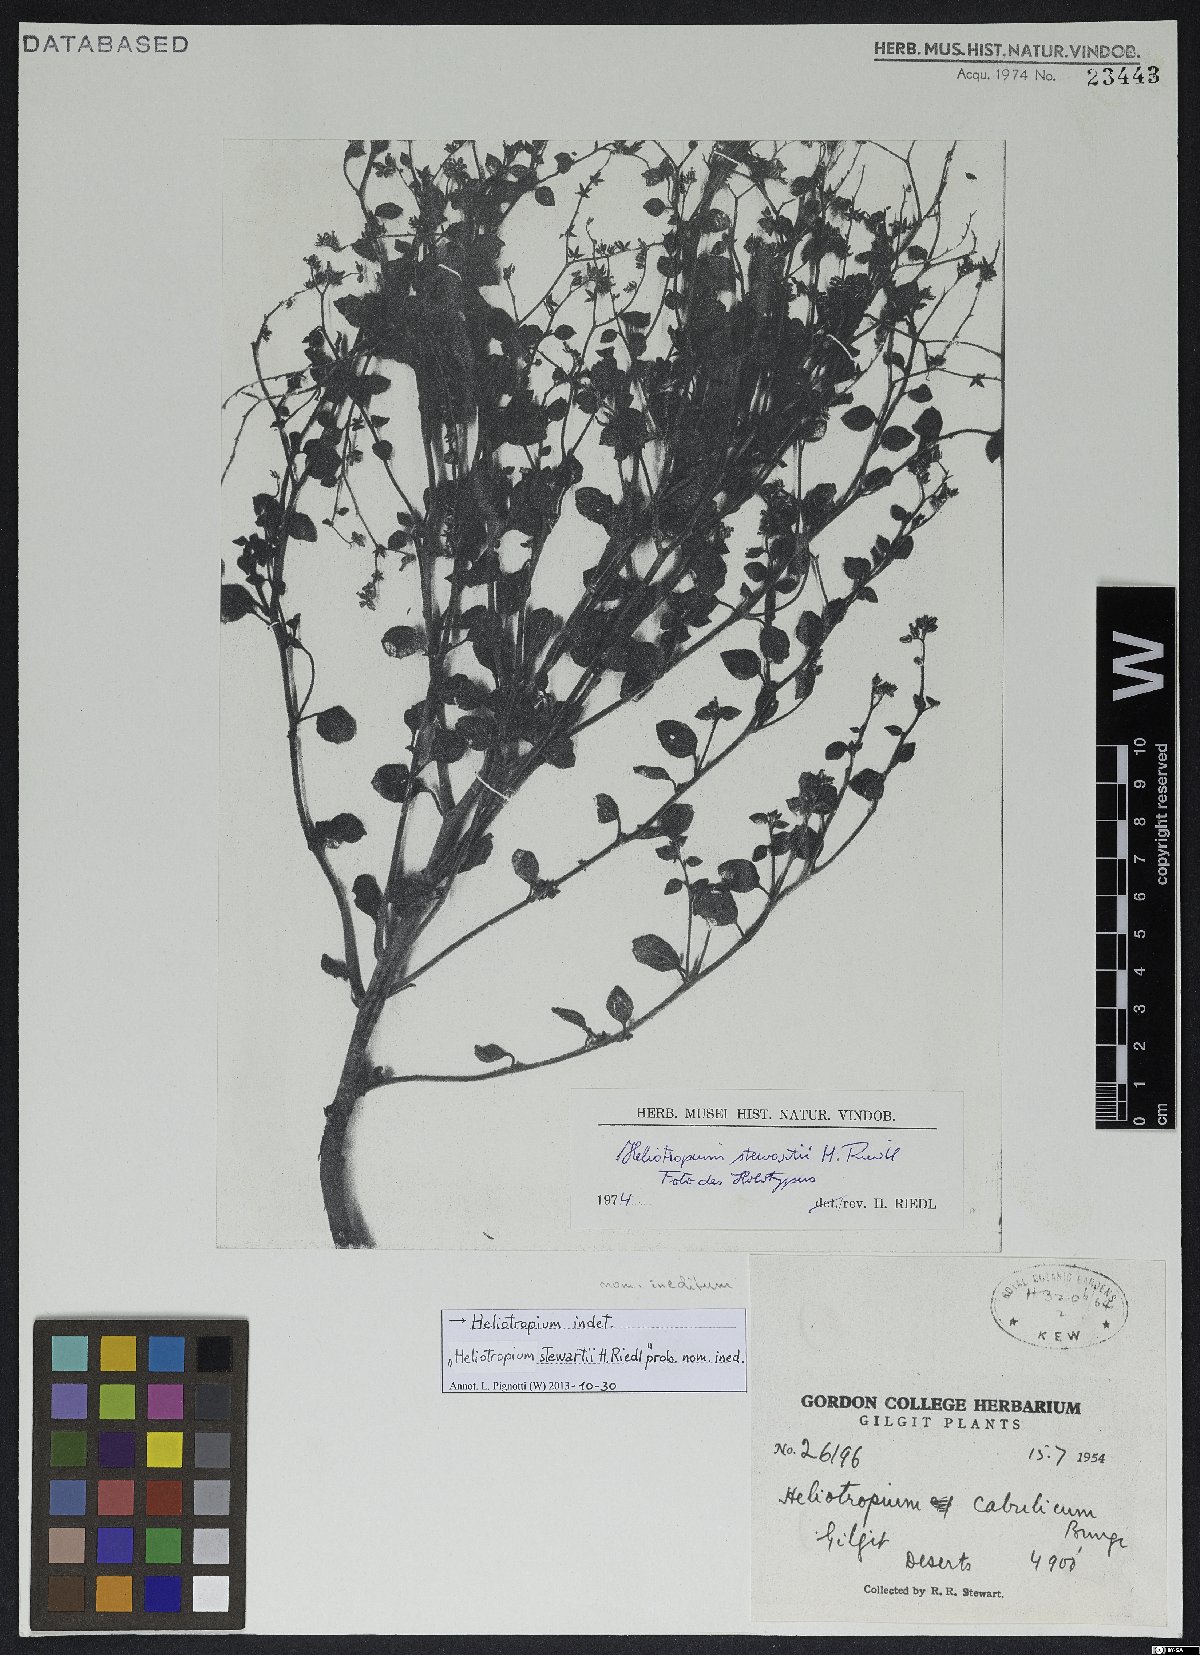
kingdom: Plantae
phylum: Tracheophyta
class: Magnoliopsida
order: Boraginales
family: Heliotropiaceae
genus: Heliotropium
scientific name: Heliotropium
